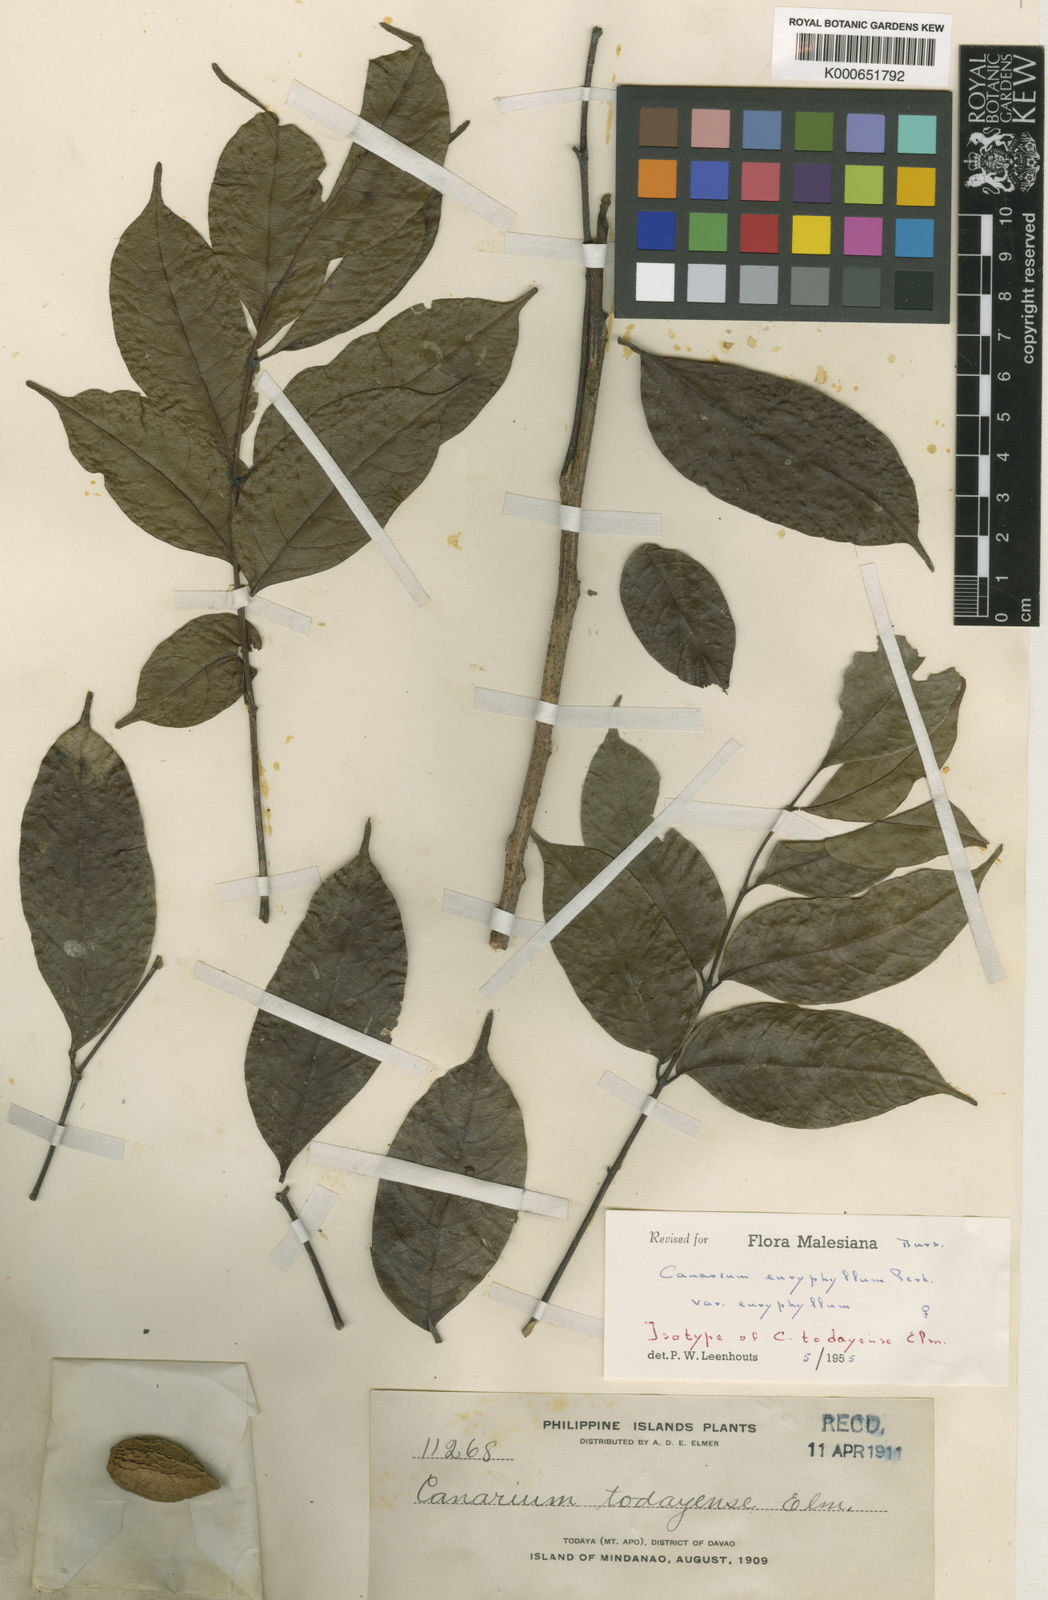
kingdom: Plantae
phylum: Tracheophyta
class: Magnoliopsida
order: Sapindales
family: Burseraceae
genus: Canarium
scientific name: Canarium euryphyllum
